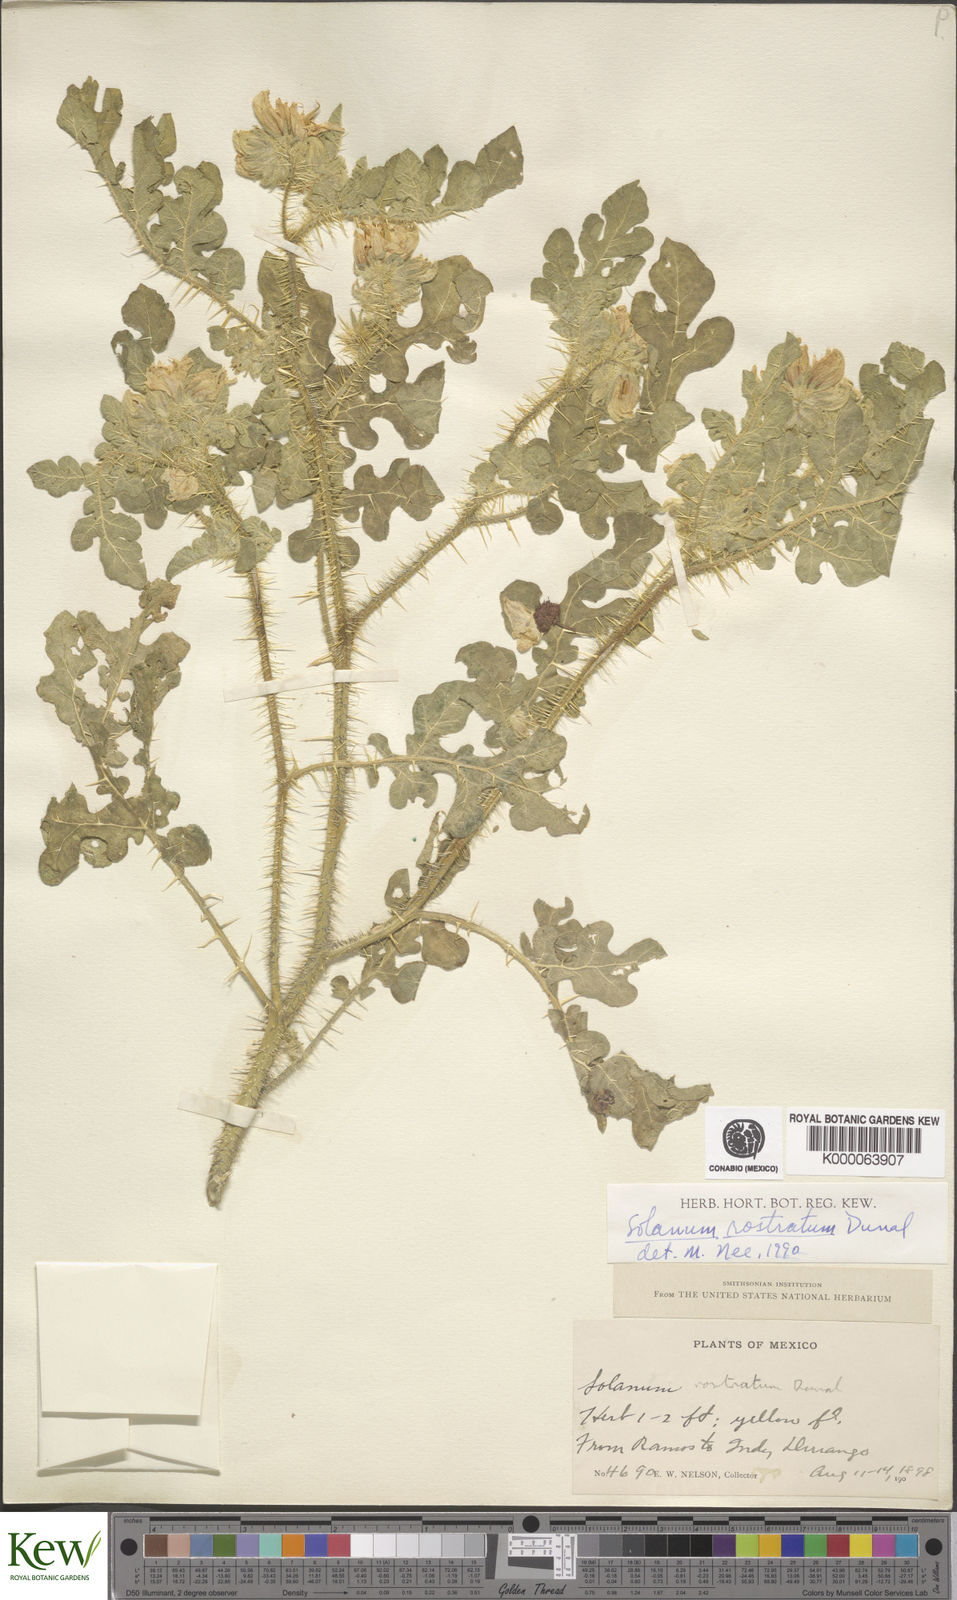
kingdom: Plantae
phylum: Tracheophyta
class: Magnoliopsida
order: Solanales
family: Solanaceae
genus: Solanum
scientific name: Solanum angustifolium
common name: Buffalobur nightshade
